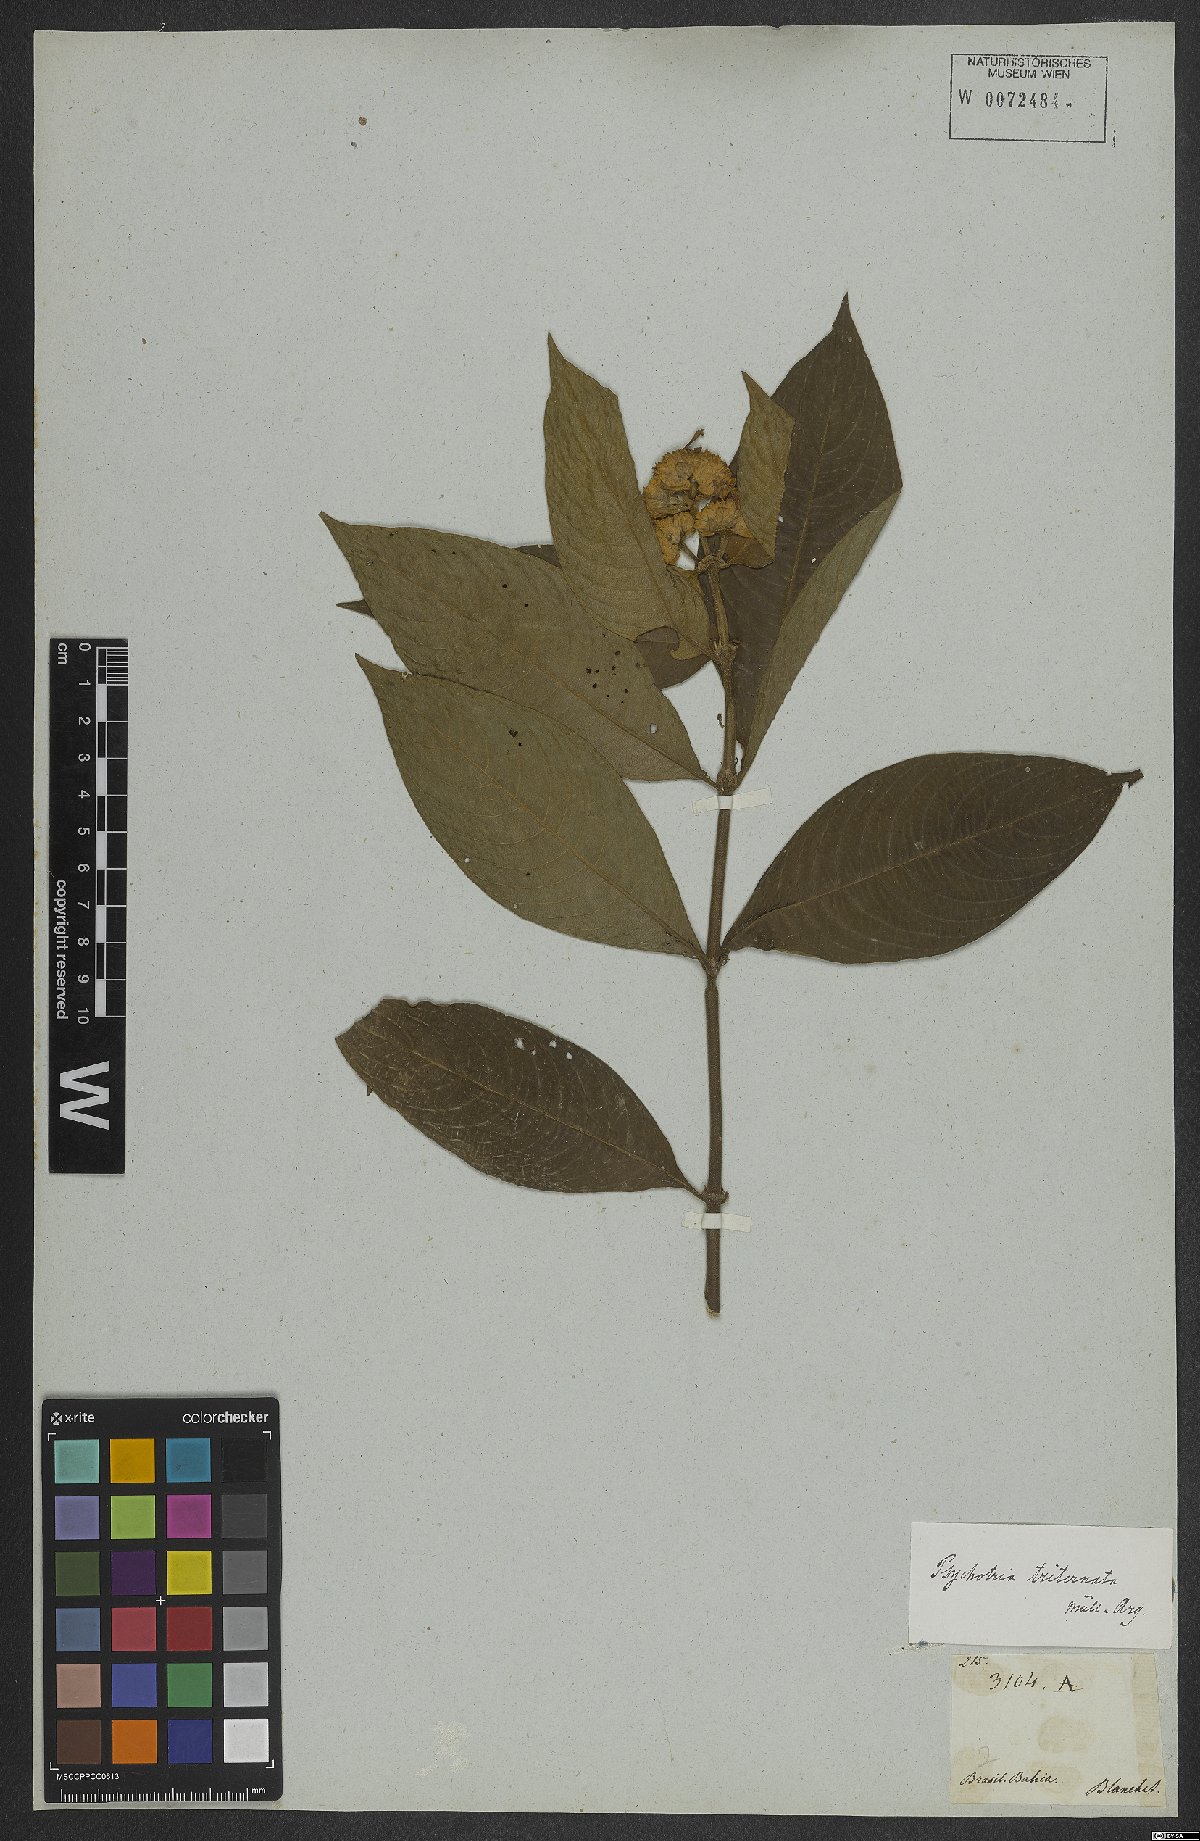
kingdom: Plantae
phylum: Tracheophyta
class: Magnoliopsida
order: Gentianales
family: Rubiaceae
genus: Palicourea
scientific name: Palicourea ruelliifolia
